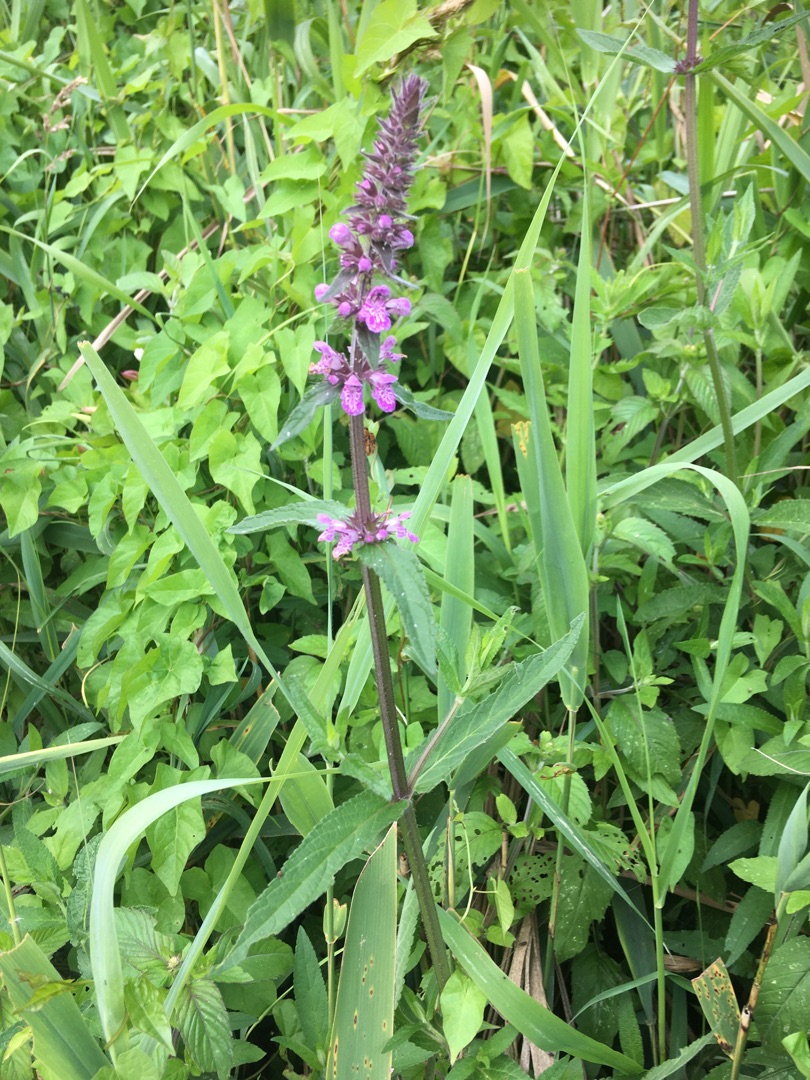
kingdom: Plantae
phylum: Tracheophyta
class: Magnoliopsida
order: Lamiales
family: Lamiaceae
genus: Stachys
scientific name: Stachys palustris
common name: Kær-galtetand
